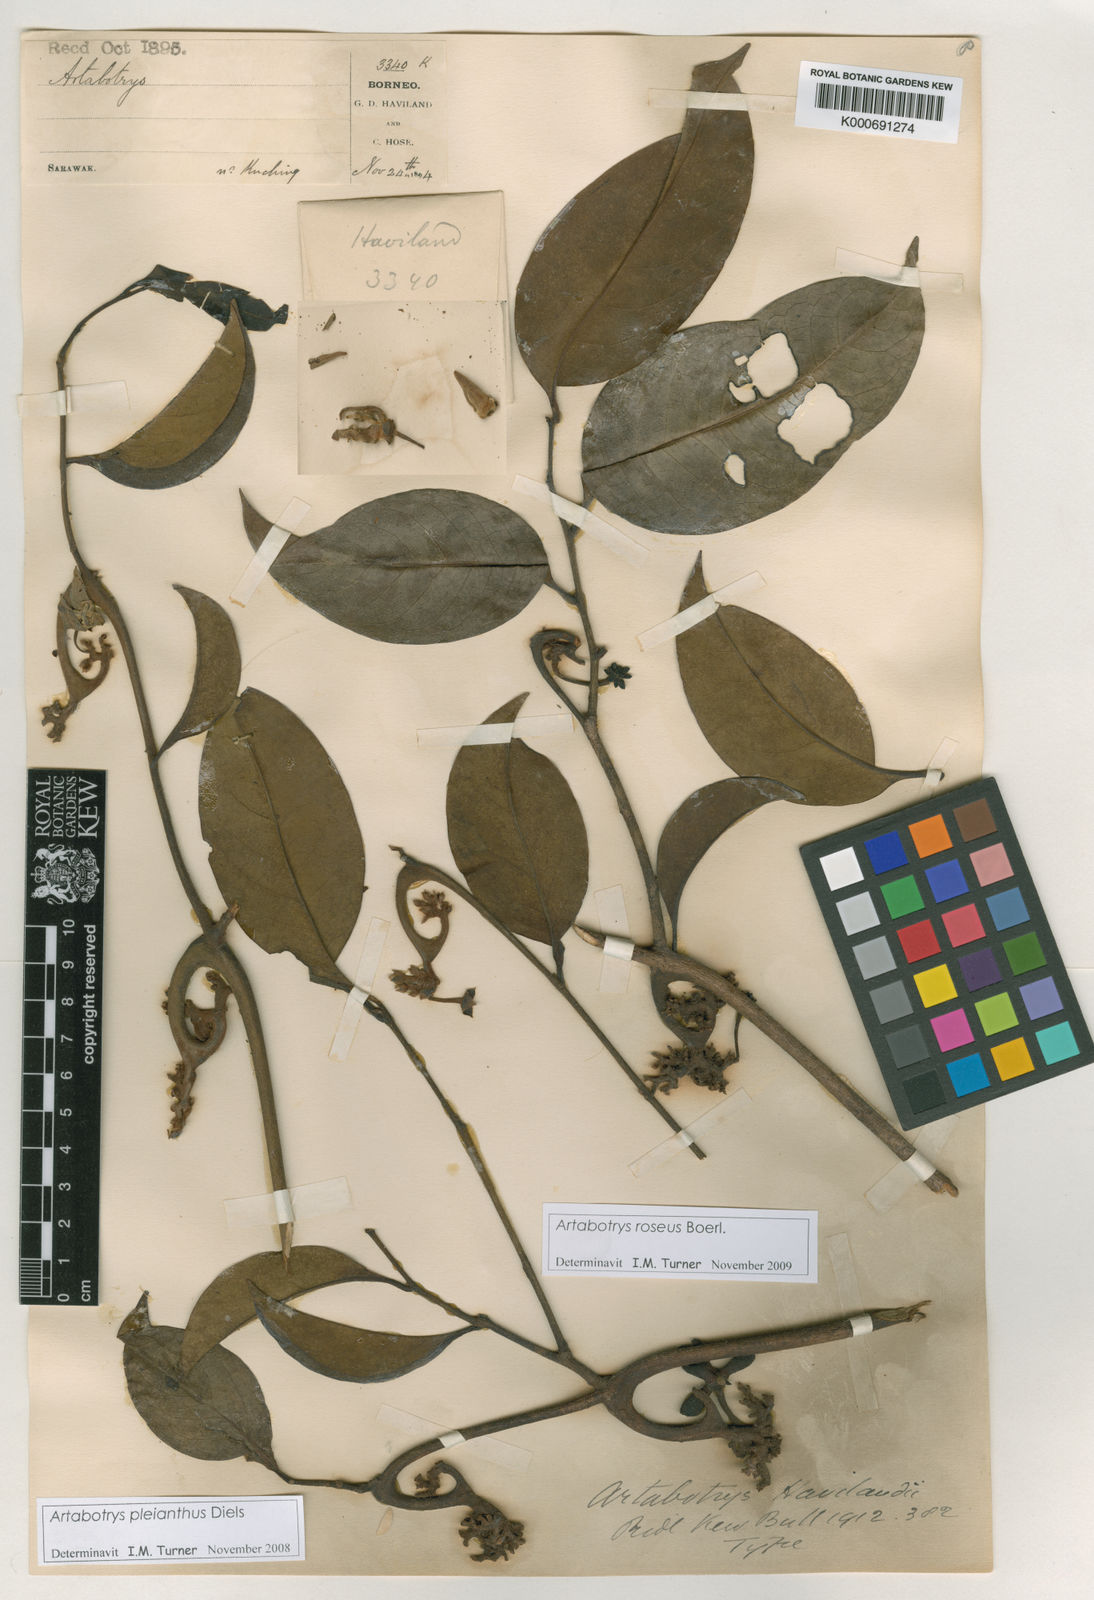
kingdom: Plantae
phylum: Tracheophyta
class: Magnoliopsida
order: Magnoliales
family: Annonaceae
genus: Artabotrys
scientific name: Artabotrys maingayi
